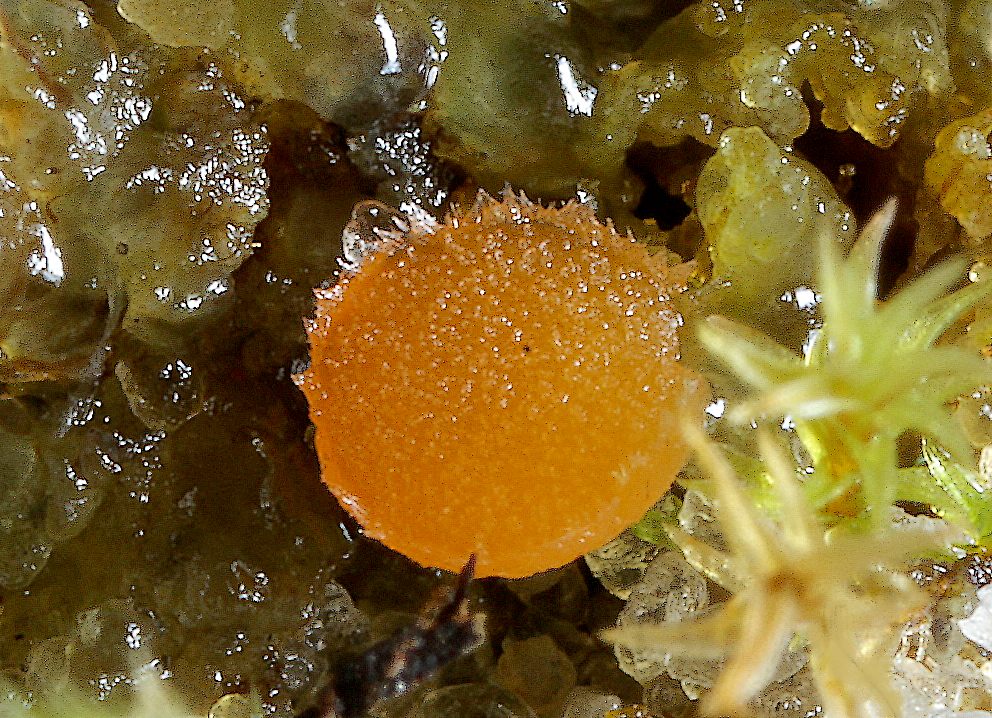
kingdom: Fungi
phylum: Ascomycota
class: Pezizomycetes
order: Pezizales
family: Pyronemataceae
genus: Neottiella
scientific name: Neottiella hetieri
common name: spidshåret mosbæger
